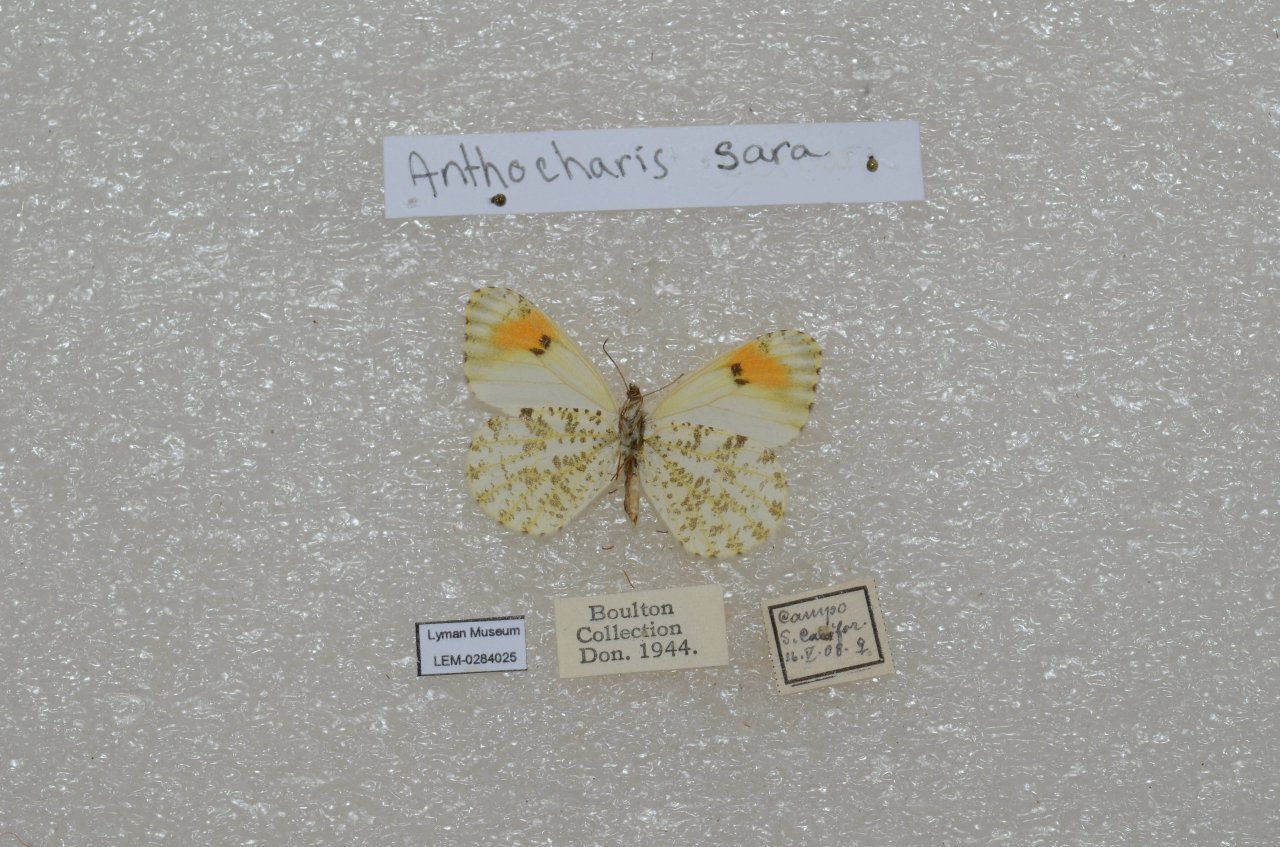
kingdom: Animalia
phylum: Arthropoda
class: Insecta
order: Lepidoptera
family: Pieridae
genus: Anthocharis
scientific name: Anthocharis sara
